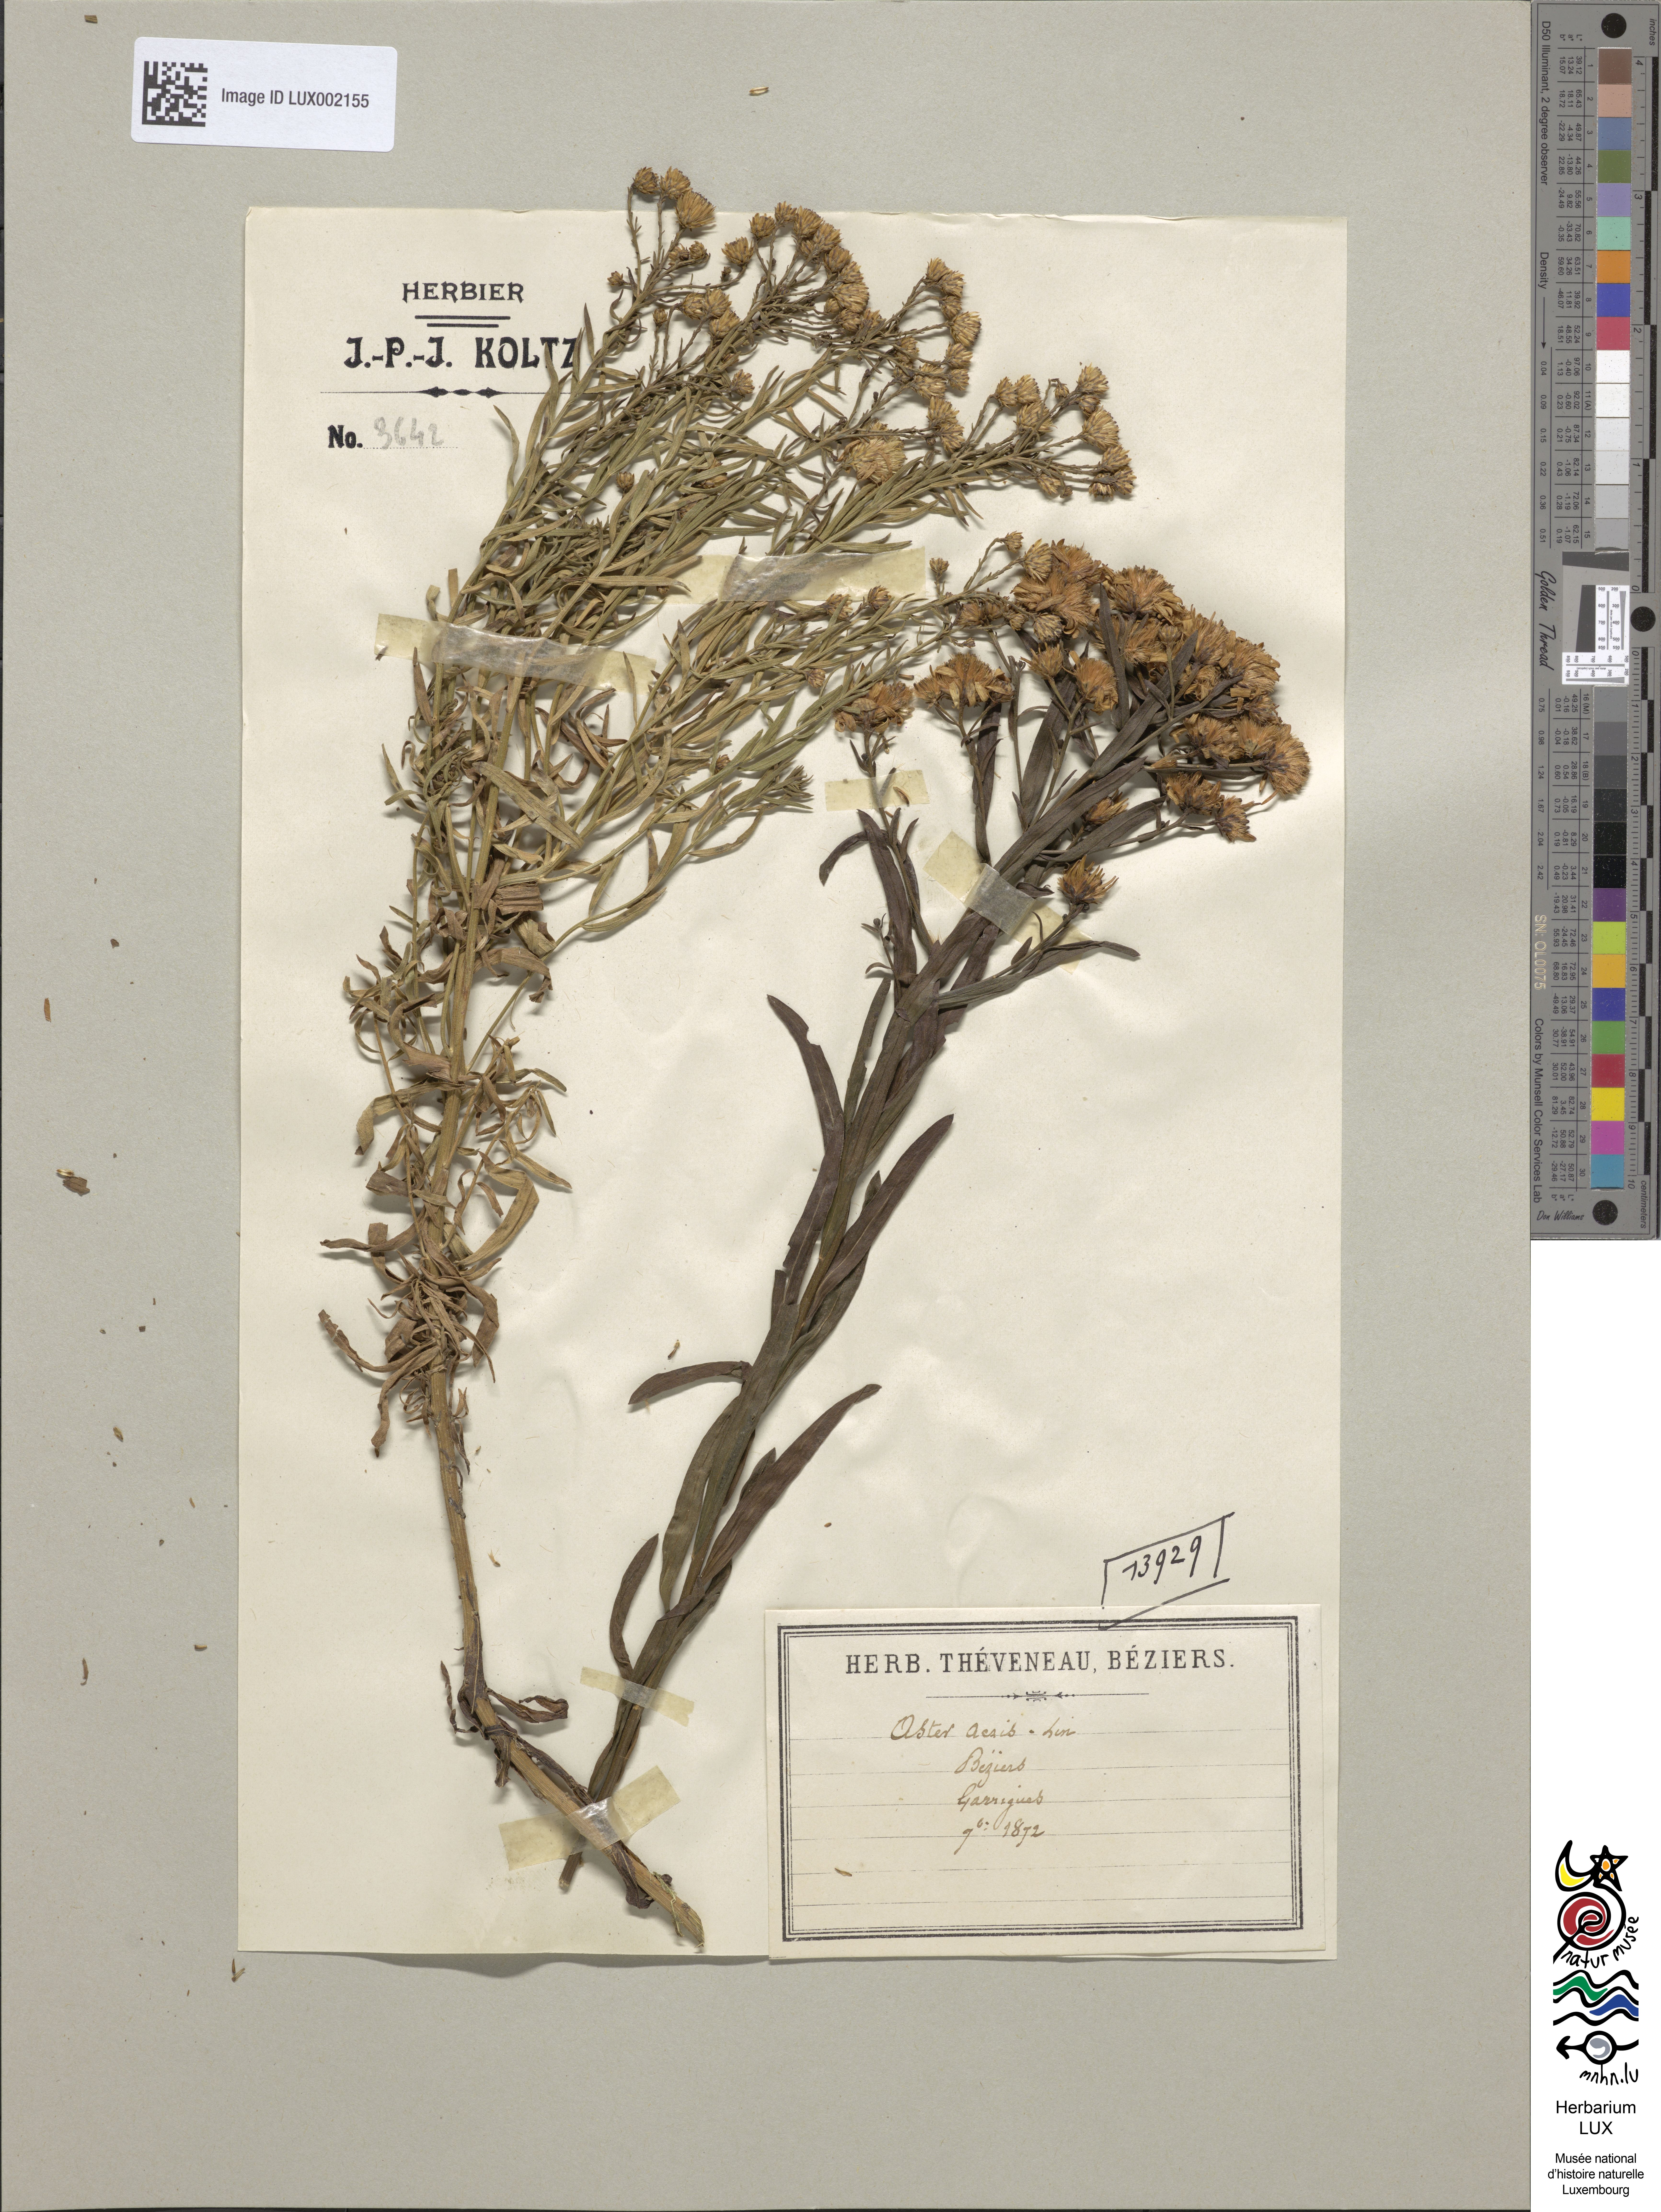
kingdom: Plantae
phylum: Tracheophyta
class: Magnoliopsida
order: Asterales
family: Asteraceae
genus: Galatella
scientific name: Galatella sedifolia
